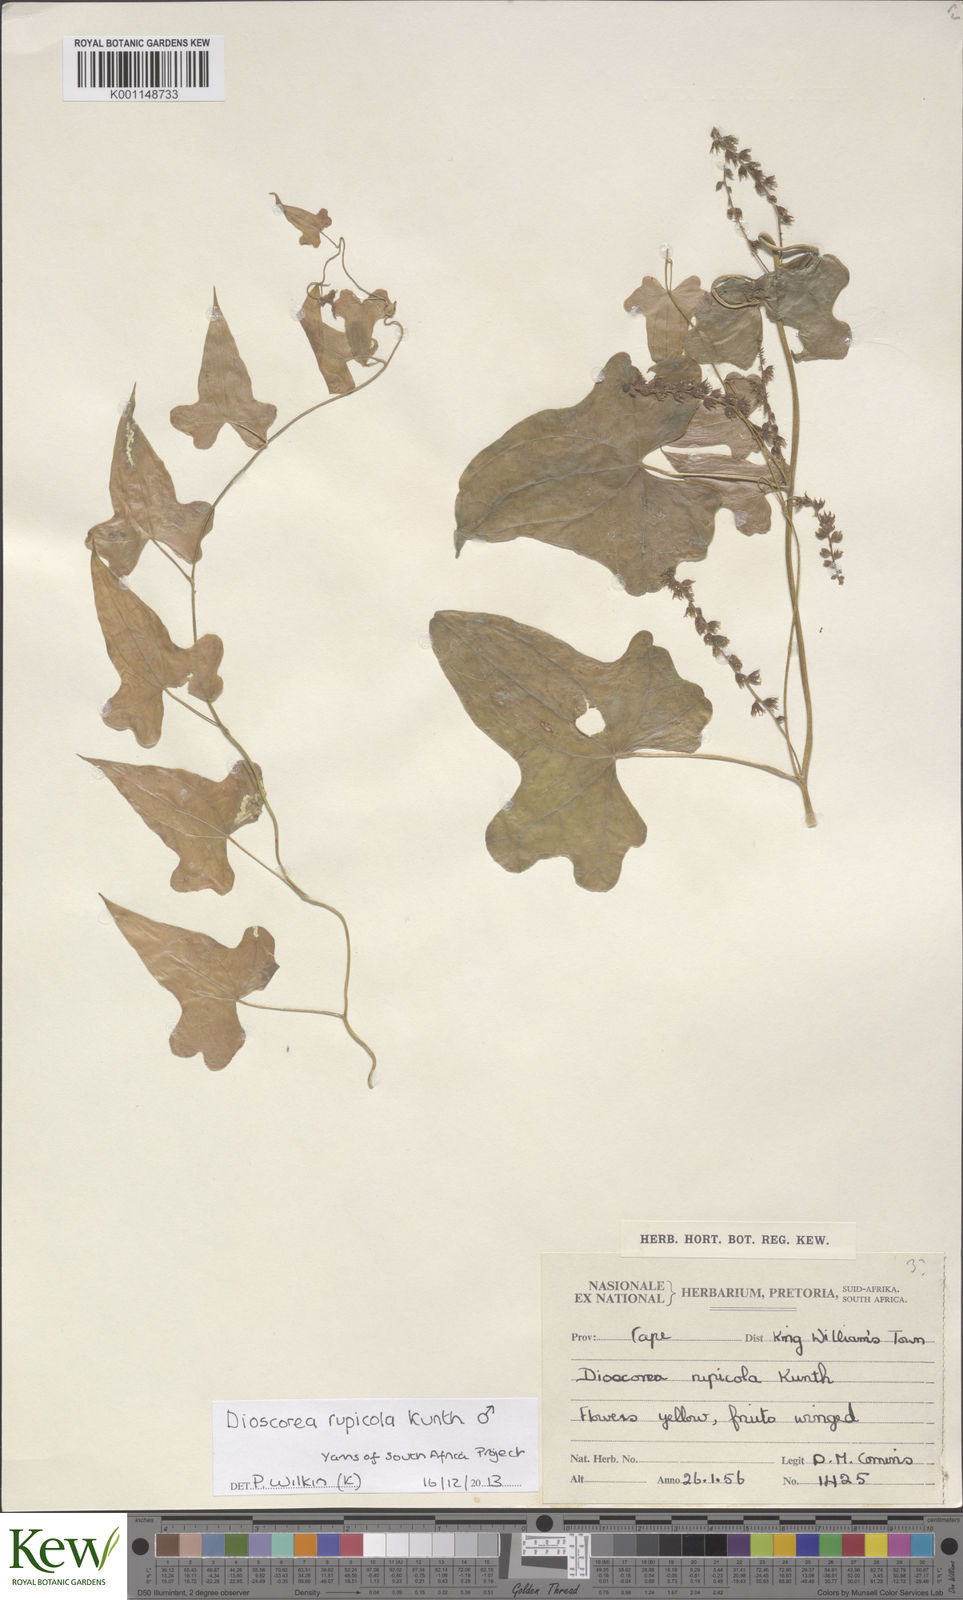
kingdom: Plantae
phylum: Tracheophyta
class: Liliopsida
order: Dioscoreales
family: Dioscoreaceae
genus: Dioscorea
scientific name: Dioscorea rupicola
